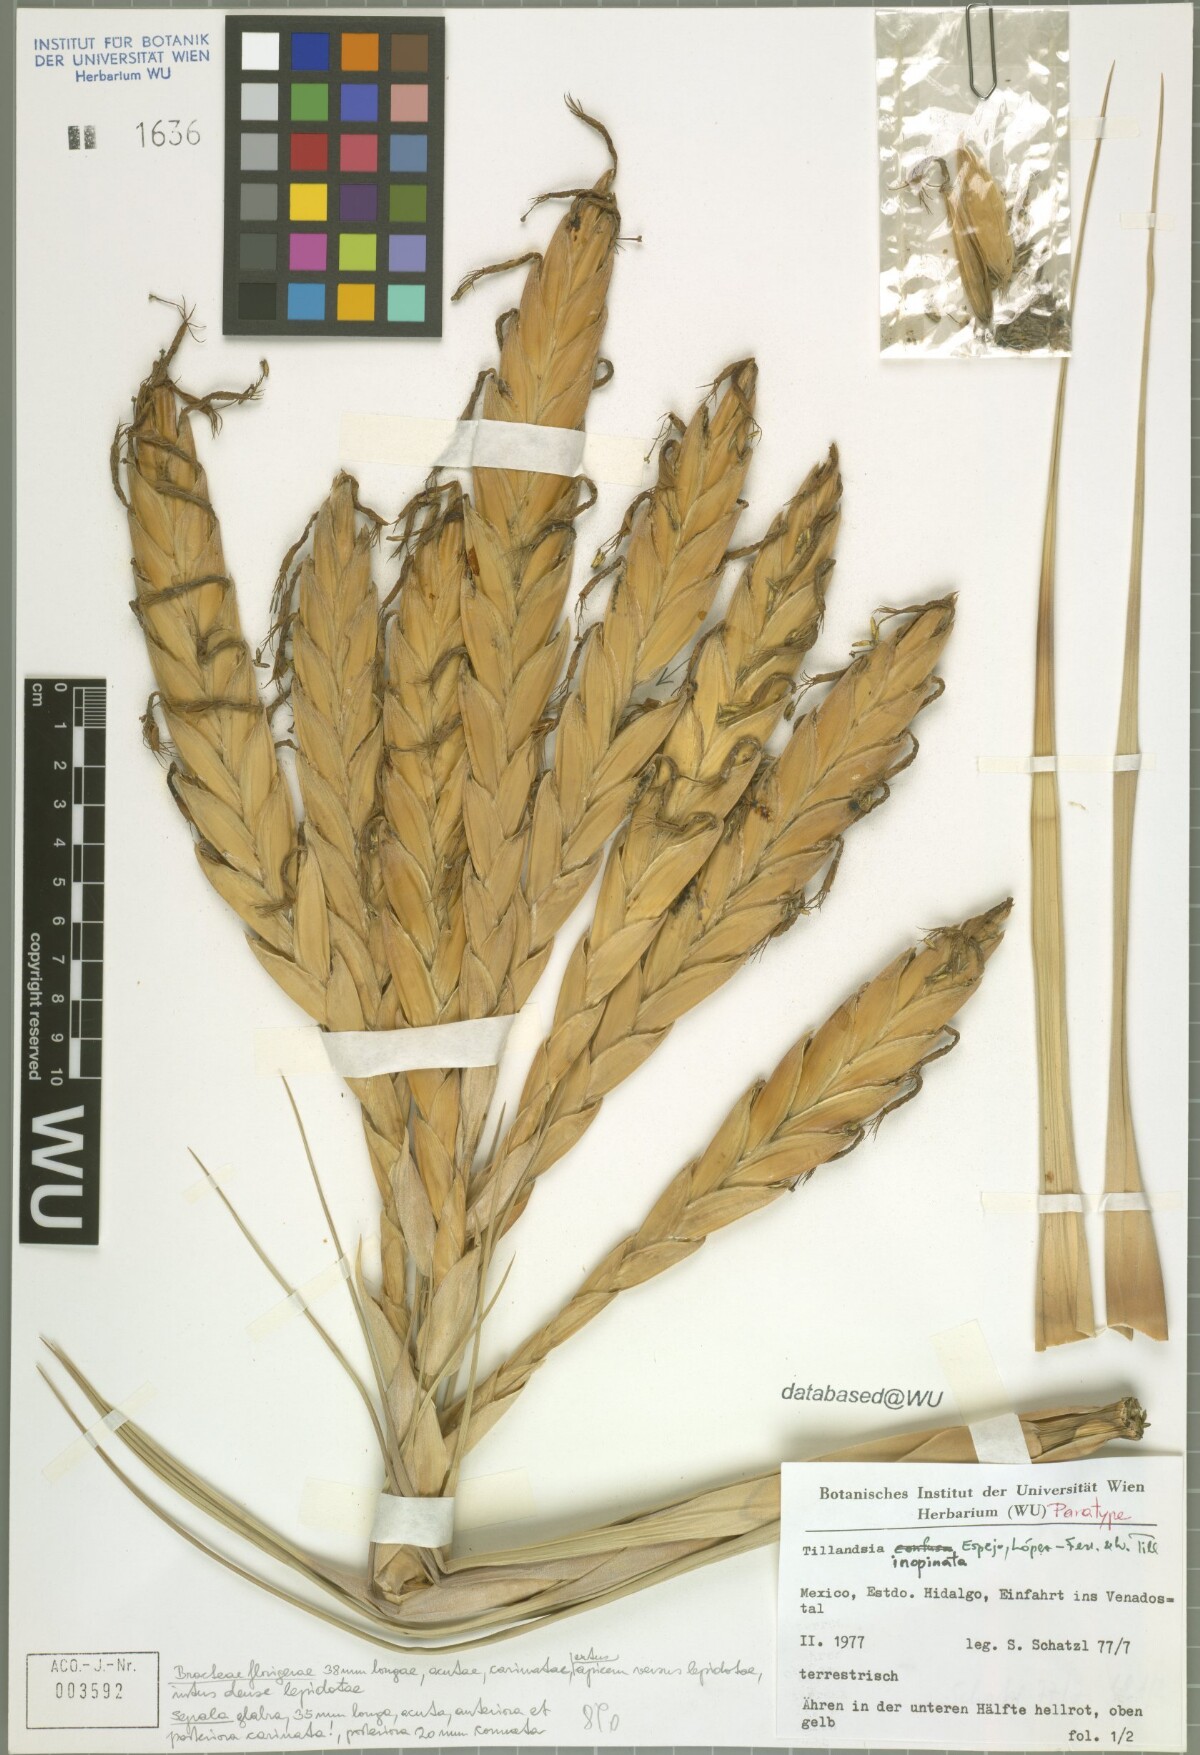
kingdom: Plantae
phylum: Tracheophyta
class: Liliopsida
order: Poales
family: Bromeliaceae
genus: Tillandsia
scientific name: Tillandsia inopinata
